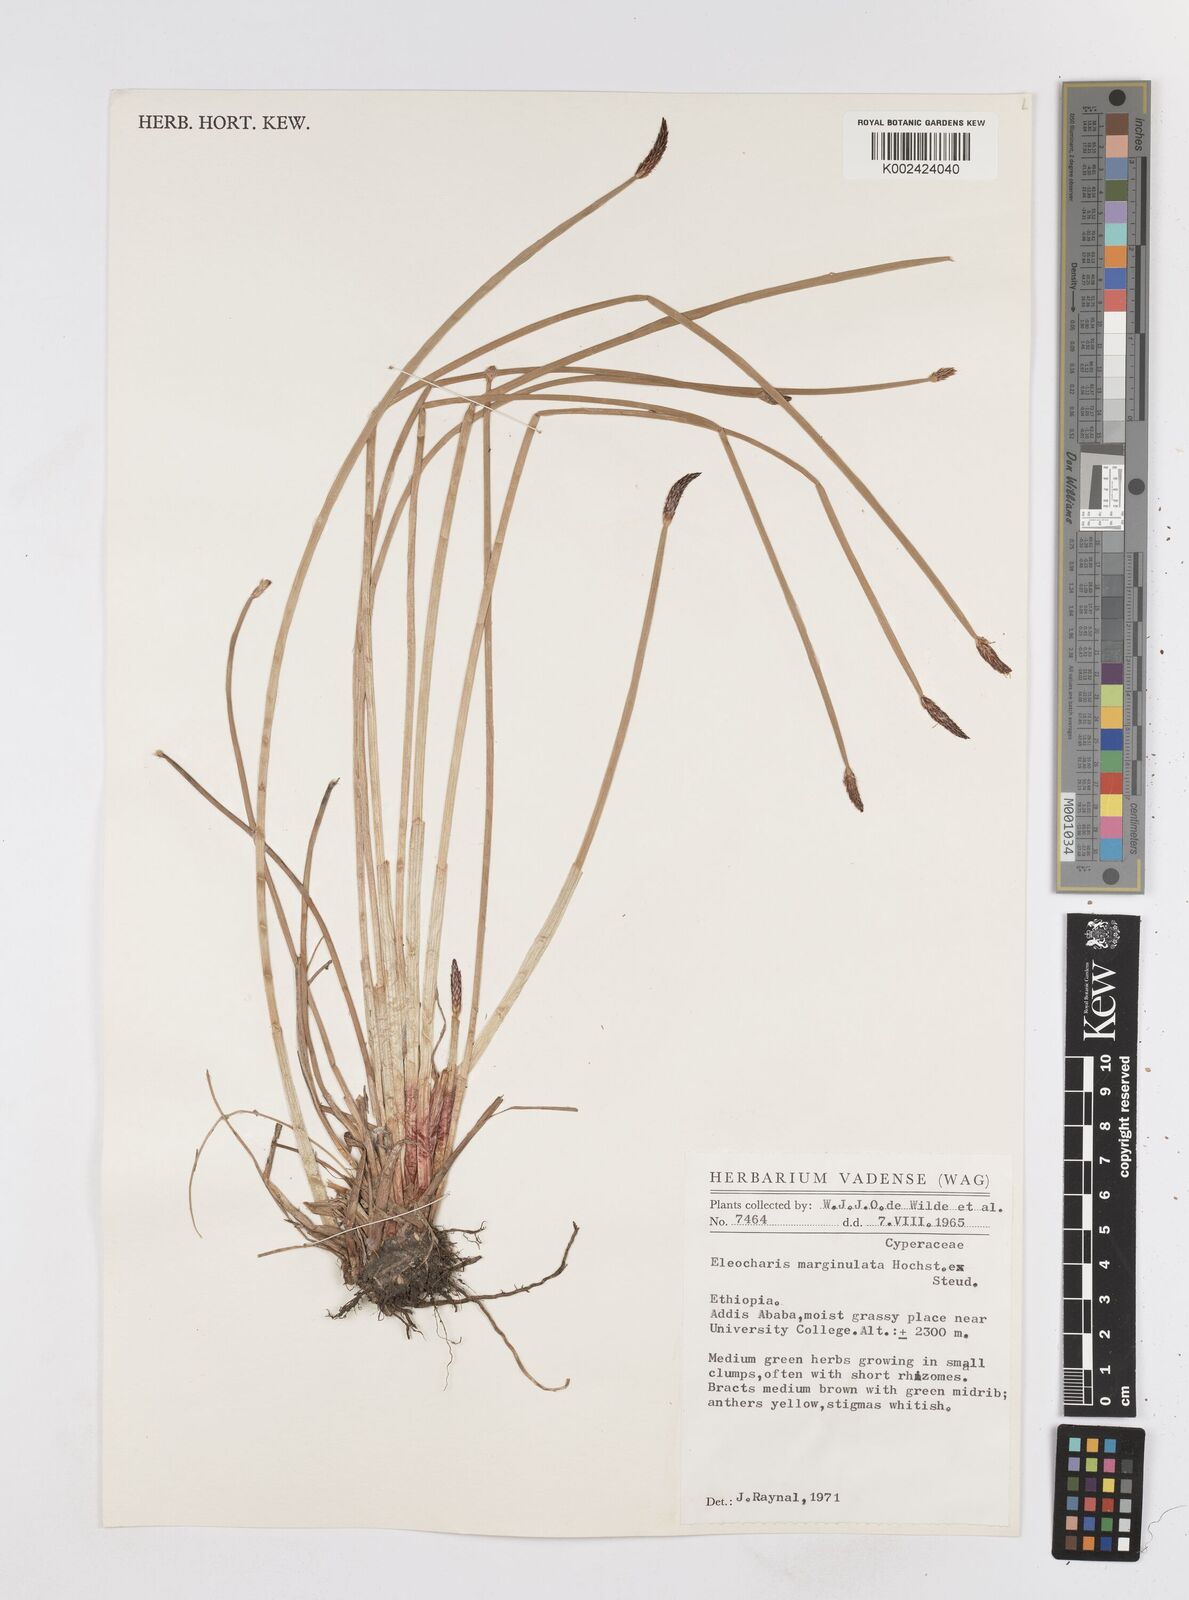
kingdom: Plantae
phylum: Tracheophyta
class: Liliopsida
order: Poales
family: Cyperaceae
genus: Eleocharis
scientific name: Eleocharis marginulata
